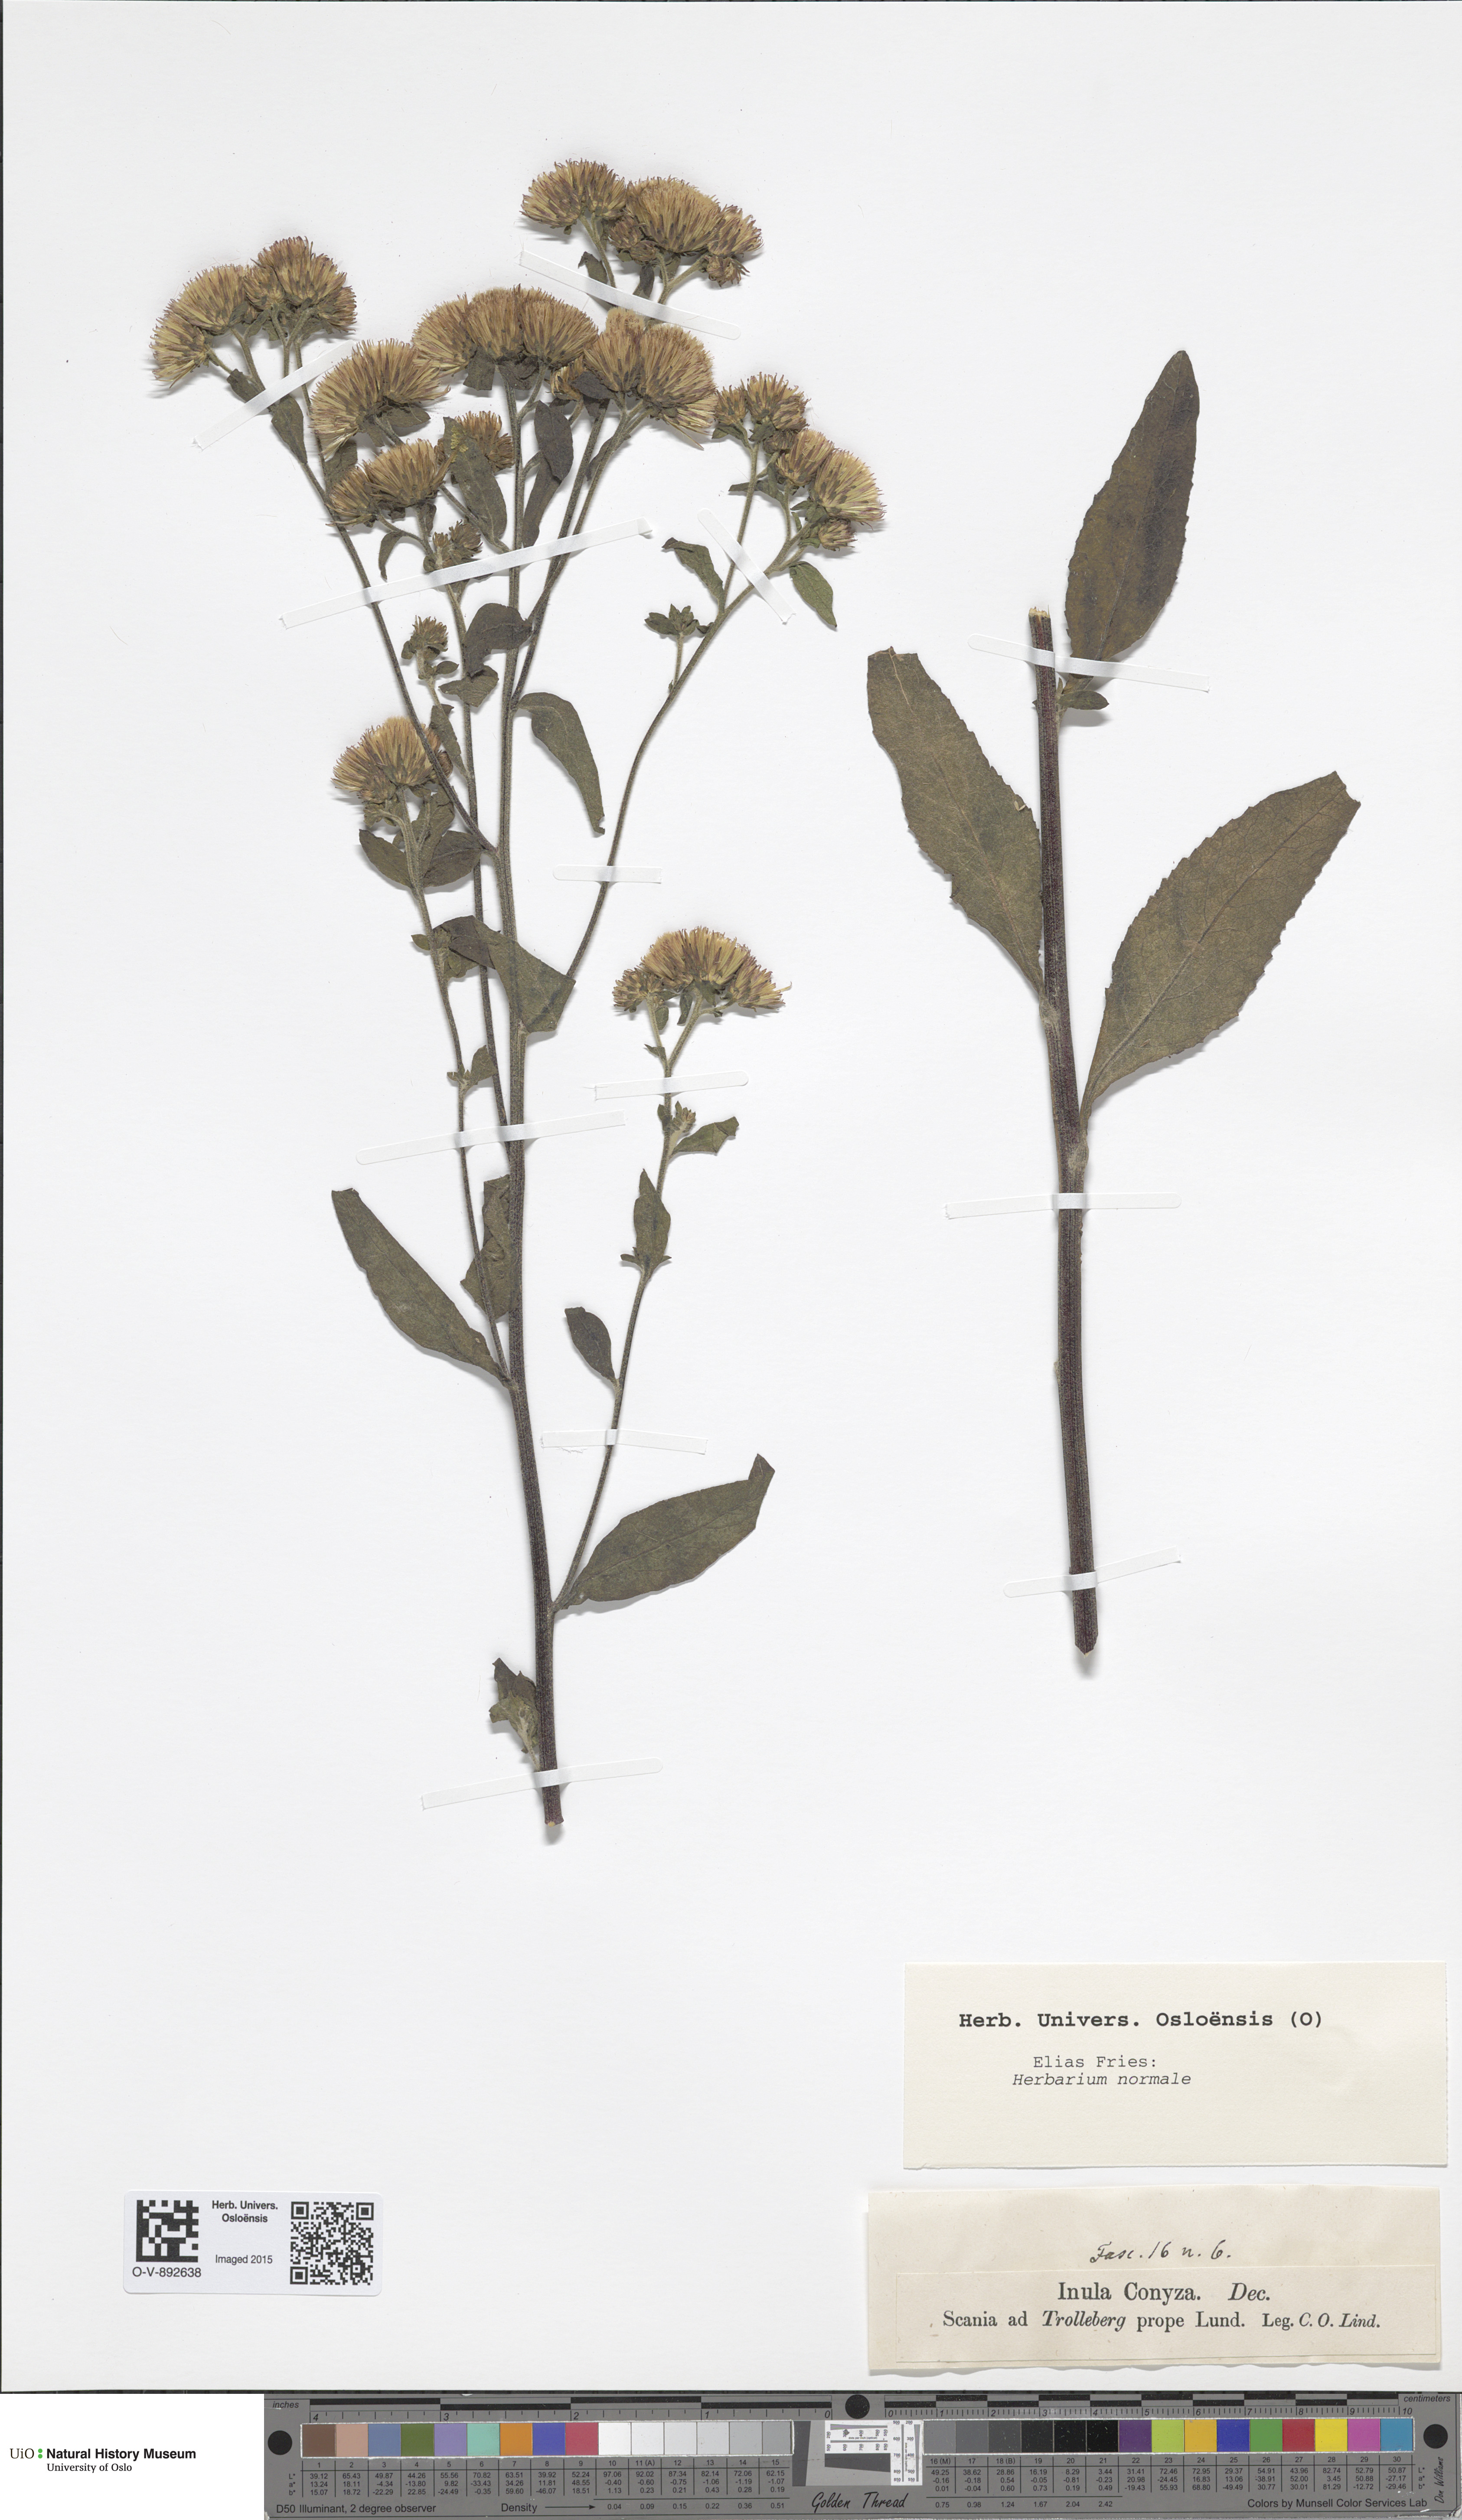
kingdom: Plantae
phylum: Tracheophyta
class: Magnoliopsida
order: Asterales
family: Asteraceae
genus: Pentanema
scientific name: Pentanema squarrosum
